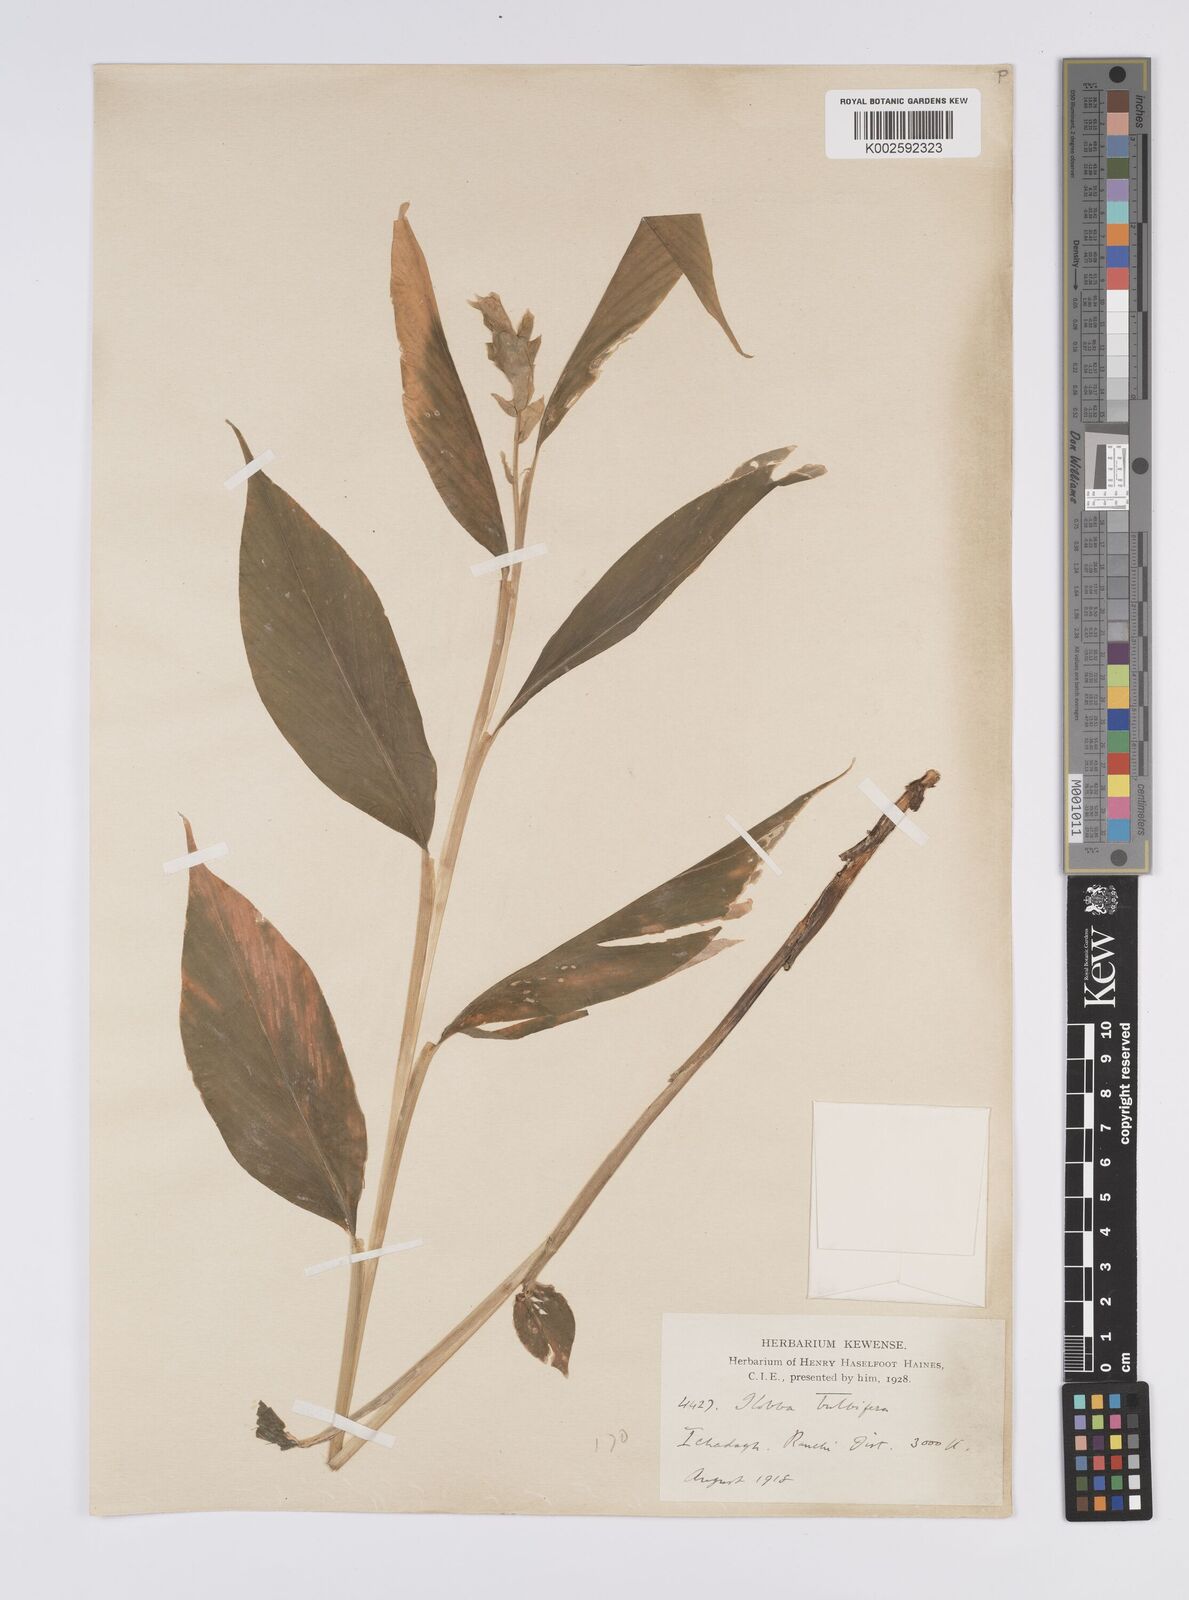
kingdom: Plantae
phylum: Tracheophyta
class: Liliopsida
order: Zingiberales
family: Zingiberaceae
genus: Globba
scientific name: Globba marantina
